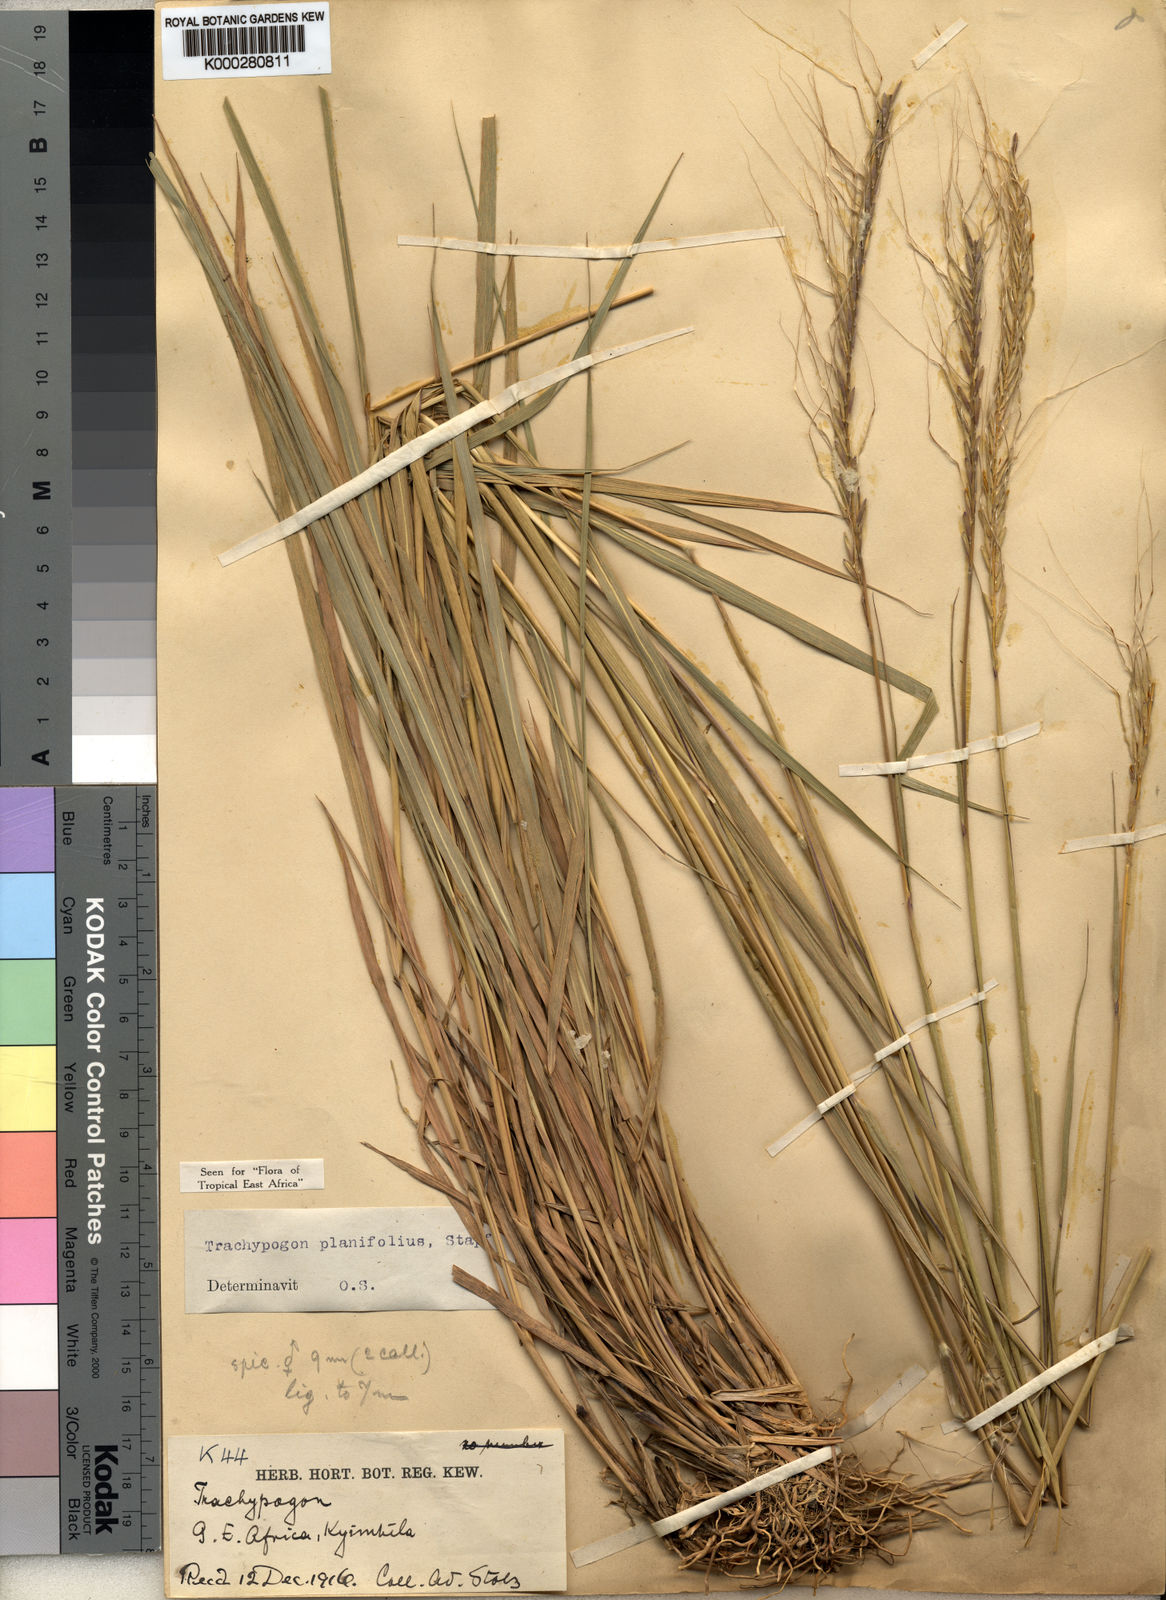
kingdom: Plantae
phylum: Tracheophyta
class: Liliopsida
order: Poales
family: Poaceae
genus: Trachypogon
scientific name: Trachypogon spicatus
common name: Crinkle-awn
